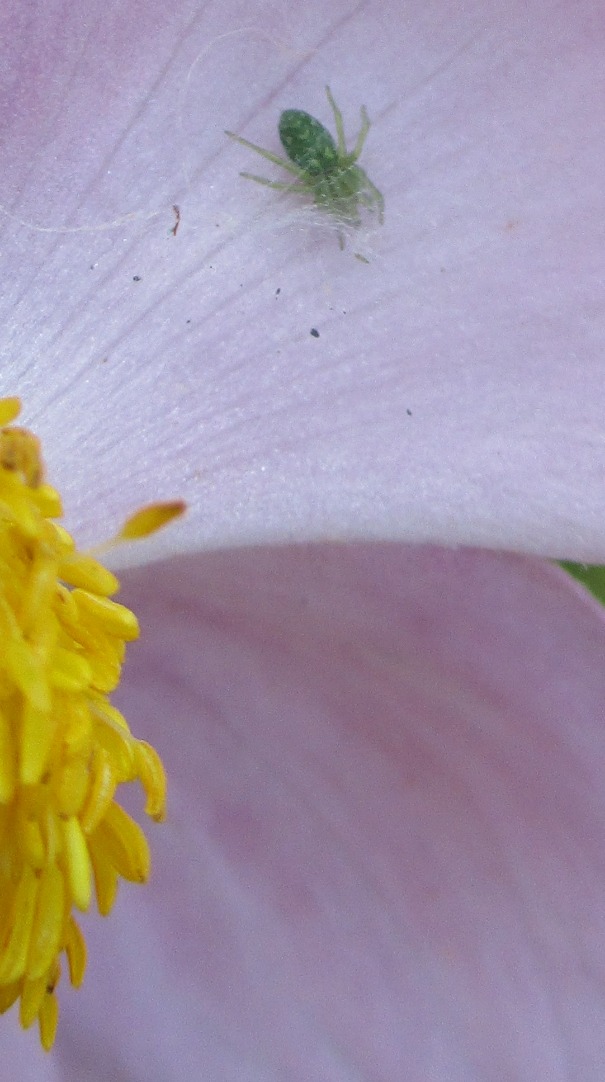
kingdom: Animalia
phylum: Arthropoda
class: Arachnida
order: Araneae
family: Dictynidae
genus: Nigma
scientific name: Nigma walckenaeri
